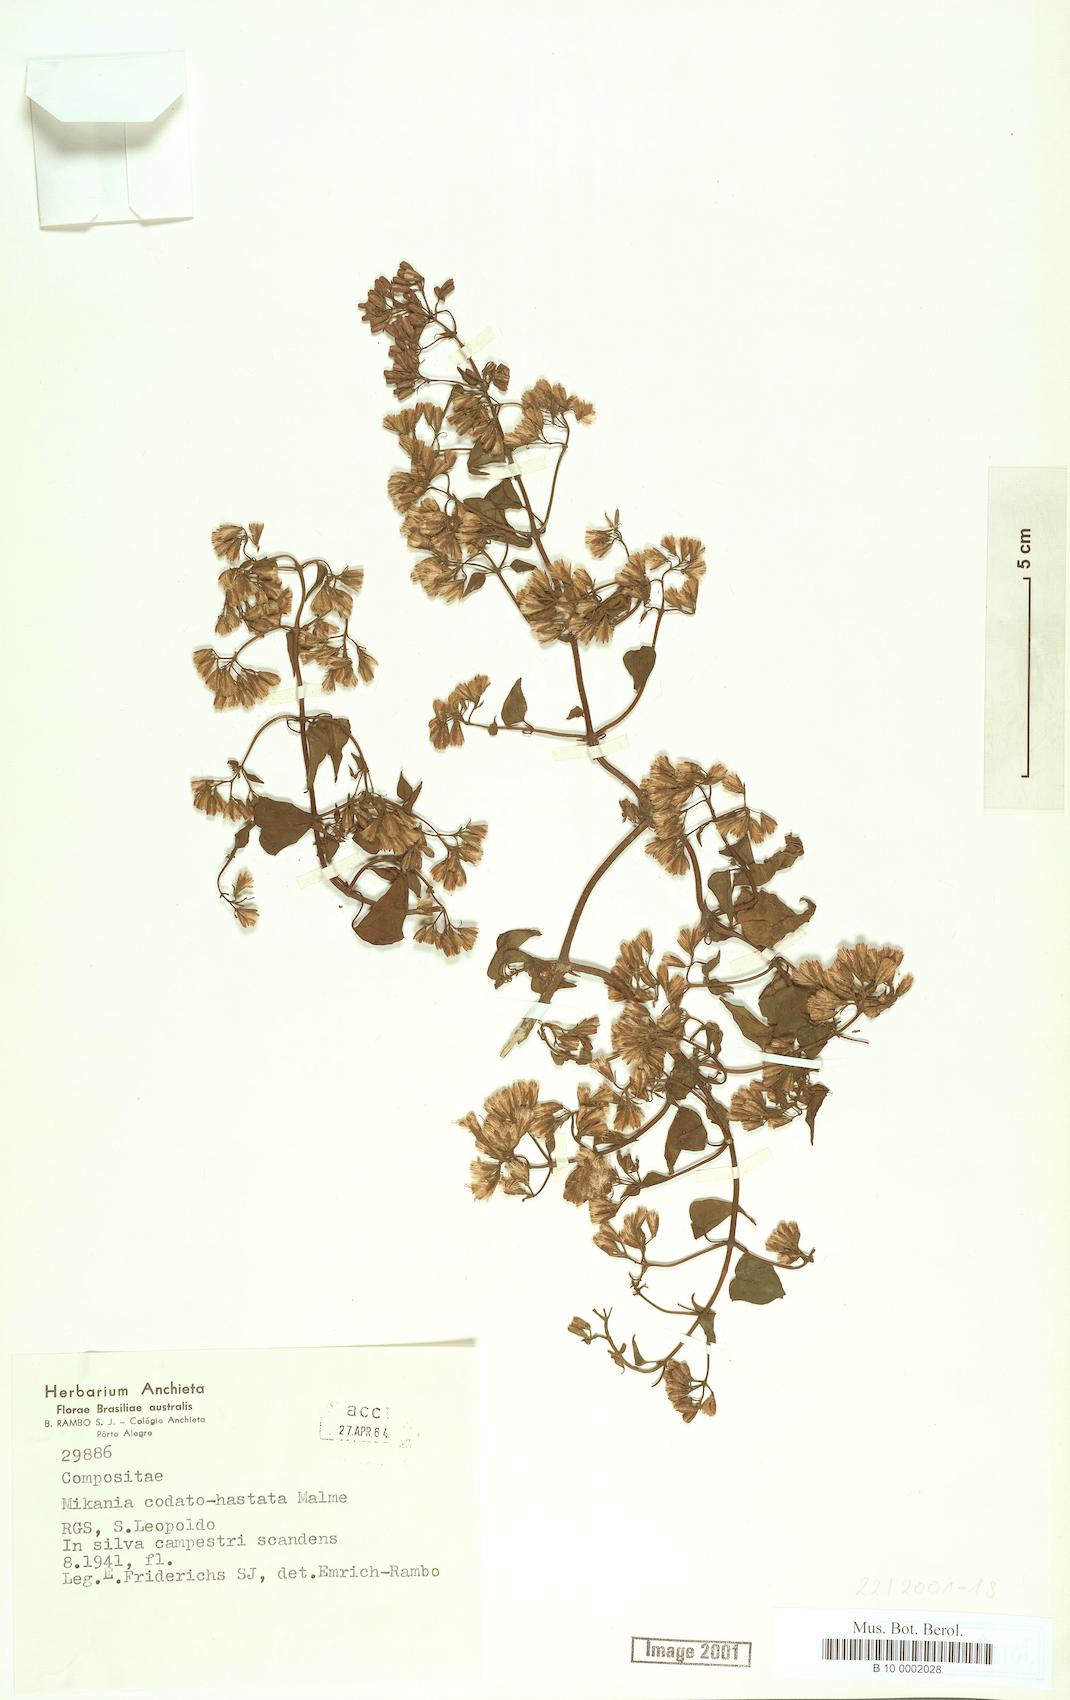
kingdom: Plantae
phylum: Tracheophyta
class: Magnoliopsida
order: Asterales
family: Asteraceae
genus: Mikania
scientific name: Mikania
